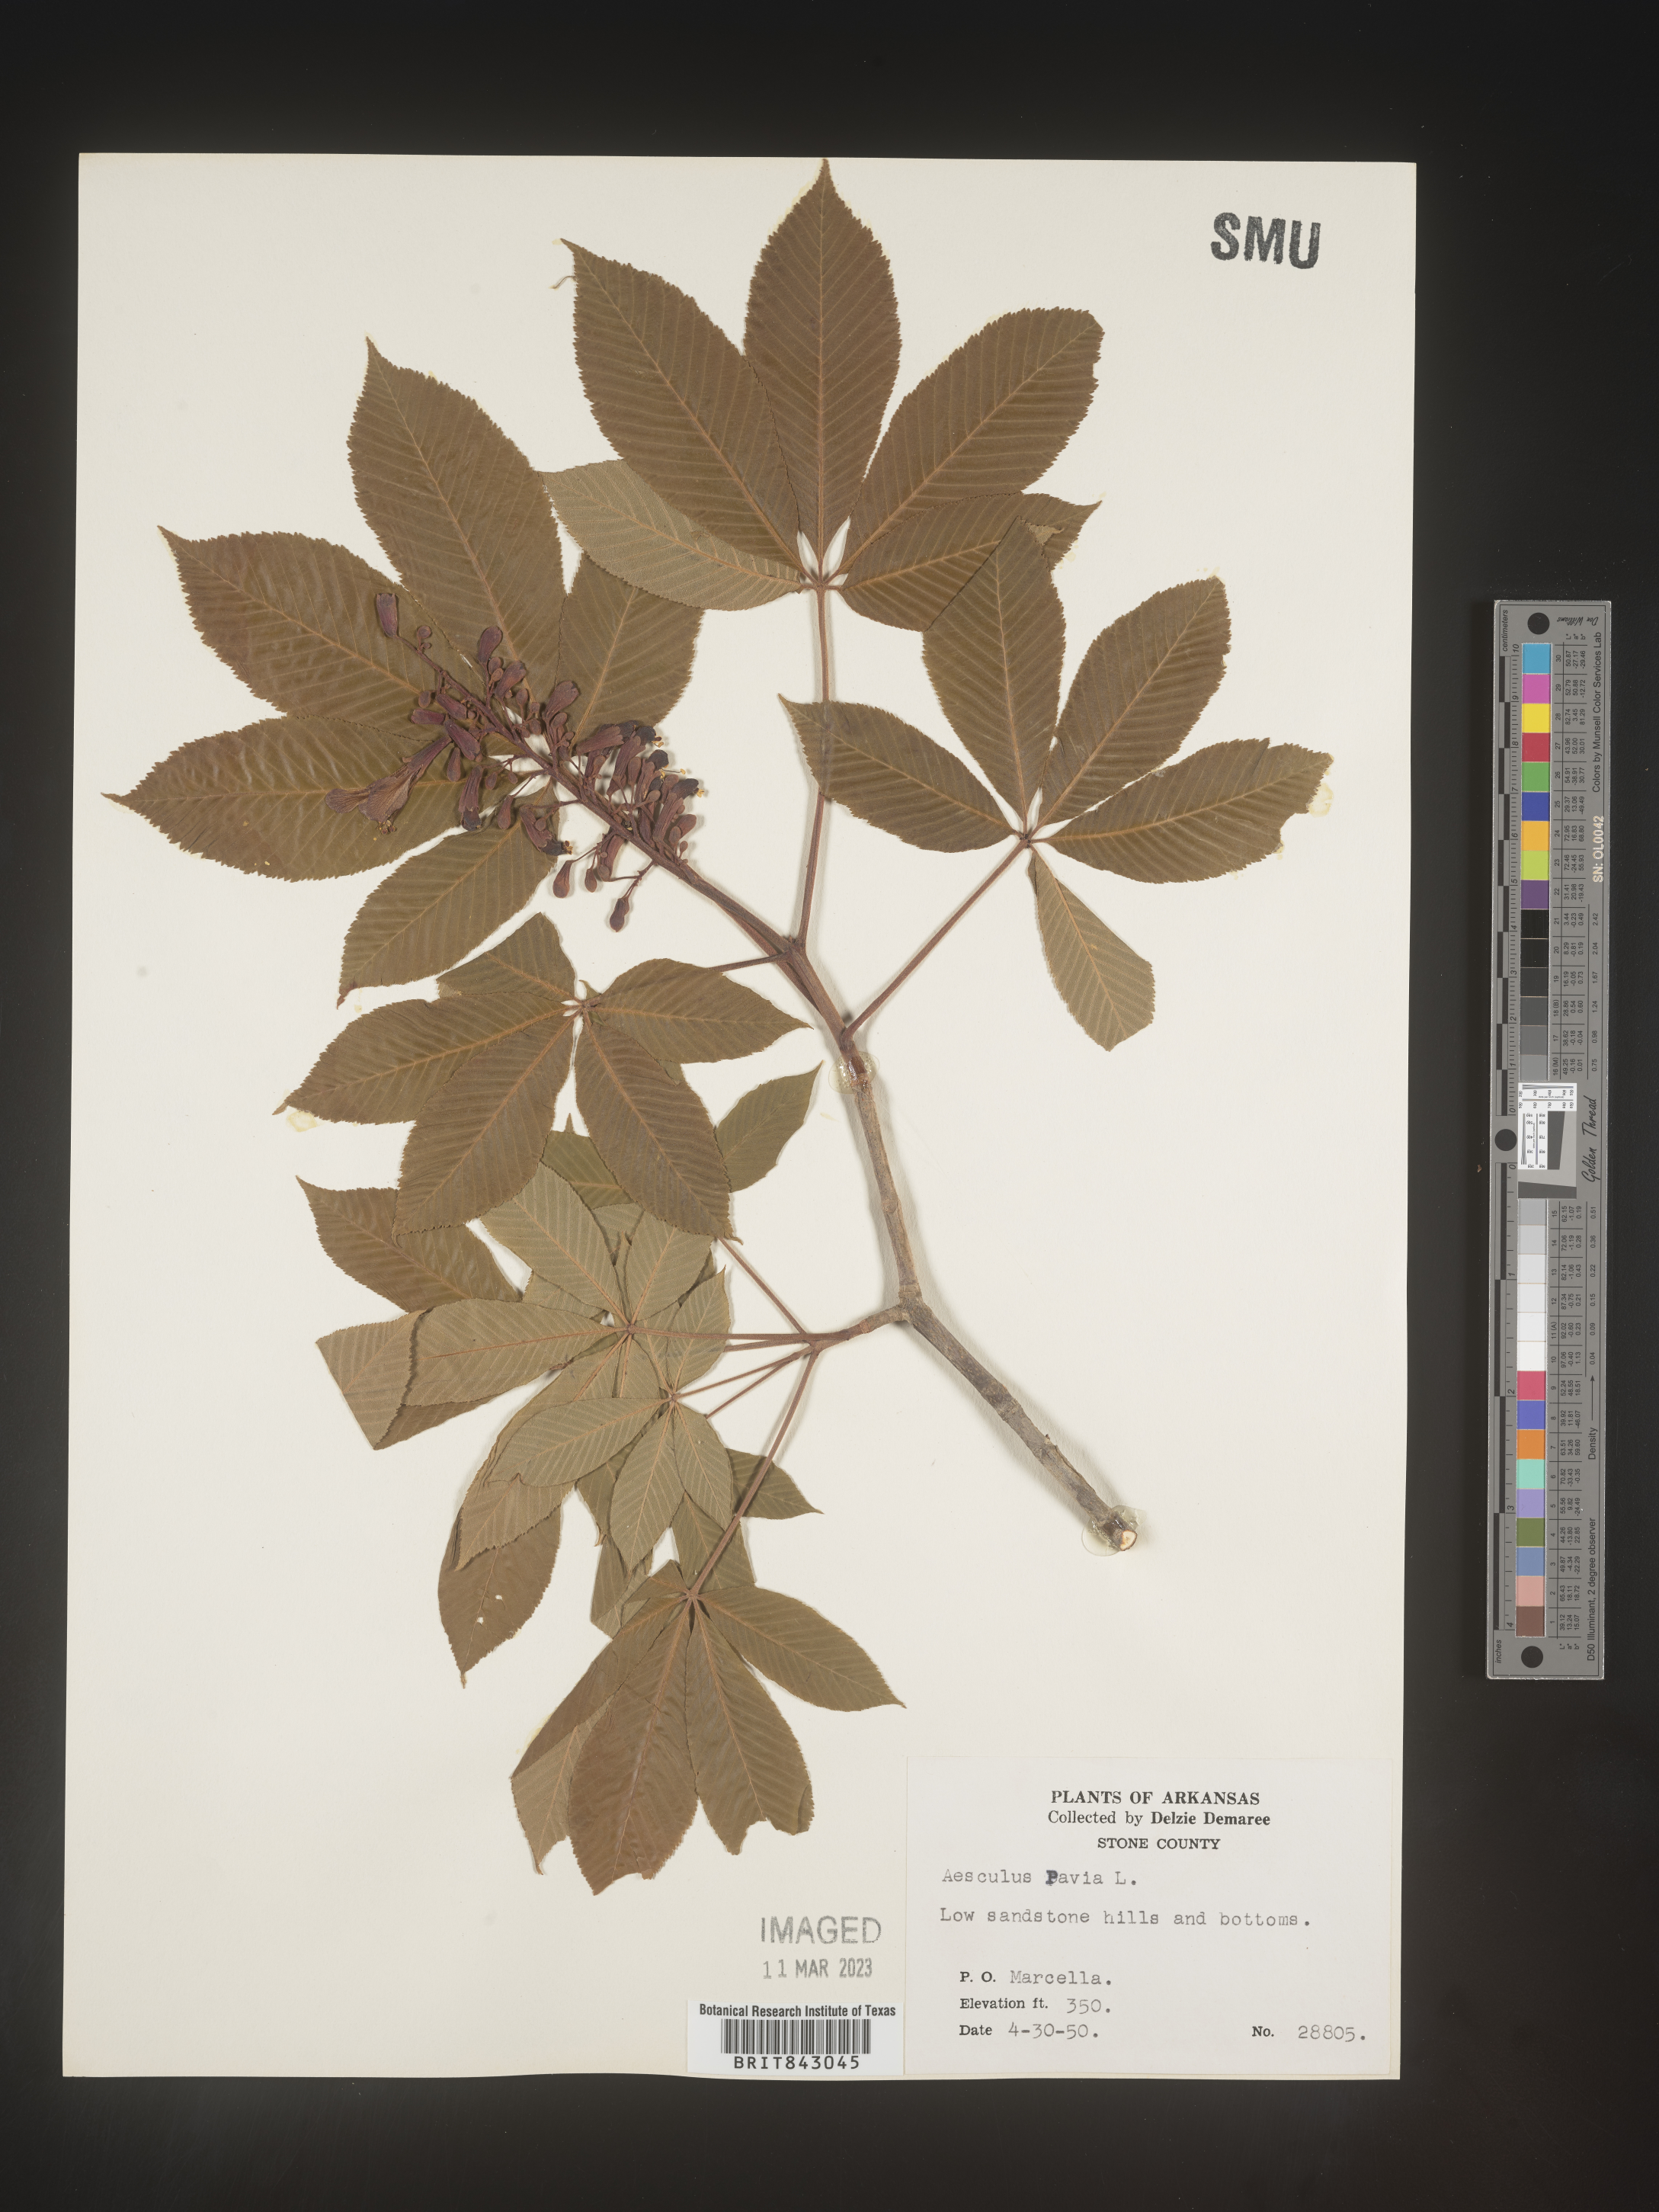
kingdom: Plantae
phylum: Tracheophyta
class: Magnoliopsida
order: Sapindales
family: Sapindaceae
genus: Aesculus
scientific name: Aesculus pavia
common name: Red buckeye
